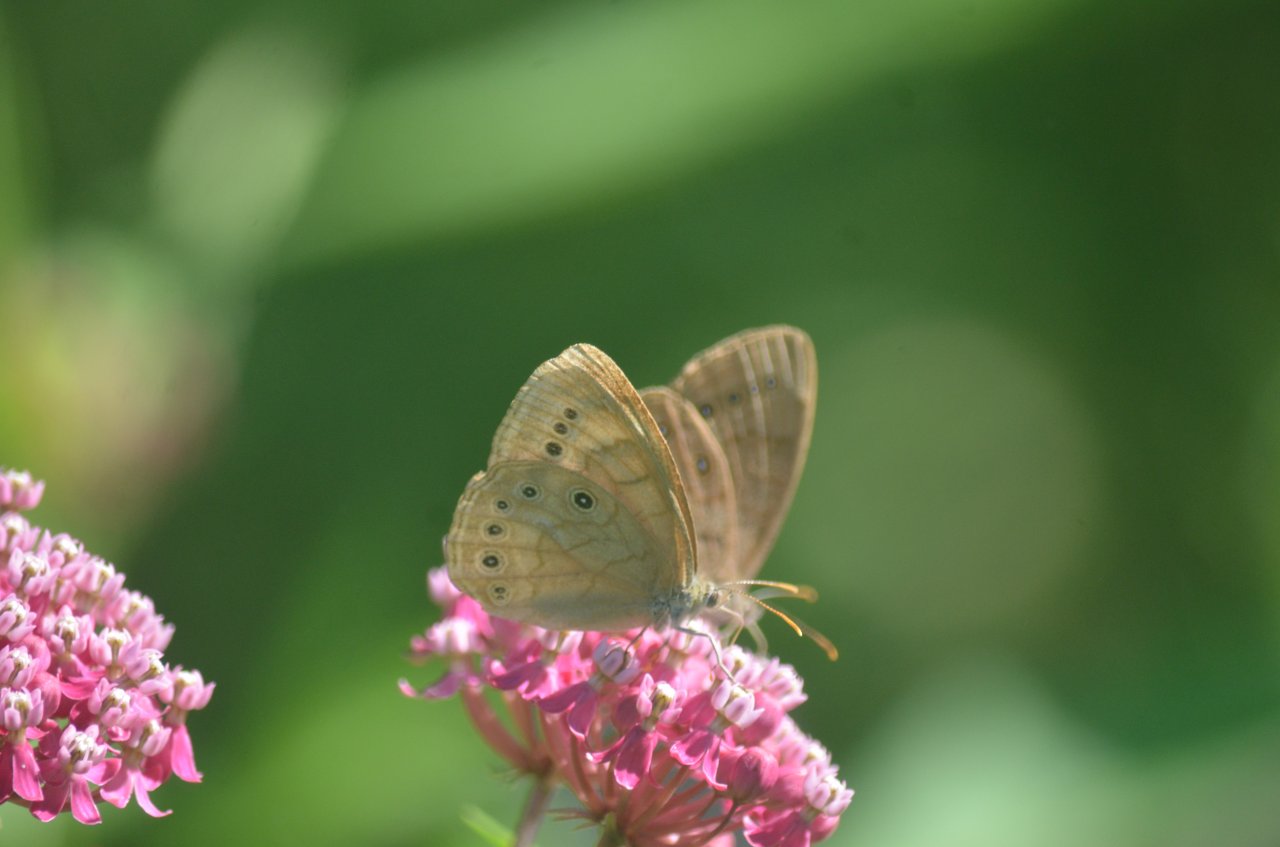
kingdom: Animalia
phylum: Arthropoda
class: Insecta
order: Lepidoptera
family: Nymphalidae
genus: Lethe
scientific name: Lethe eurydice
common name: Eyed Brown
